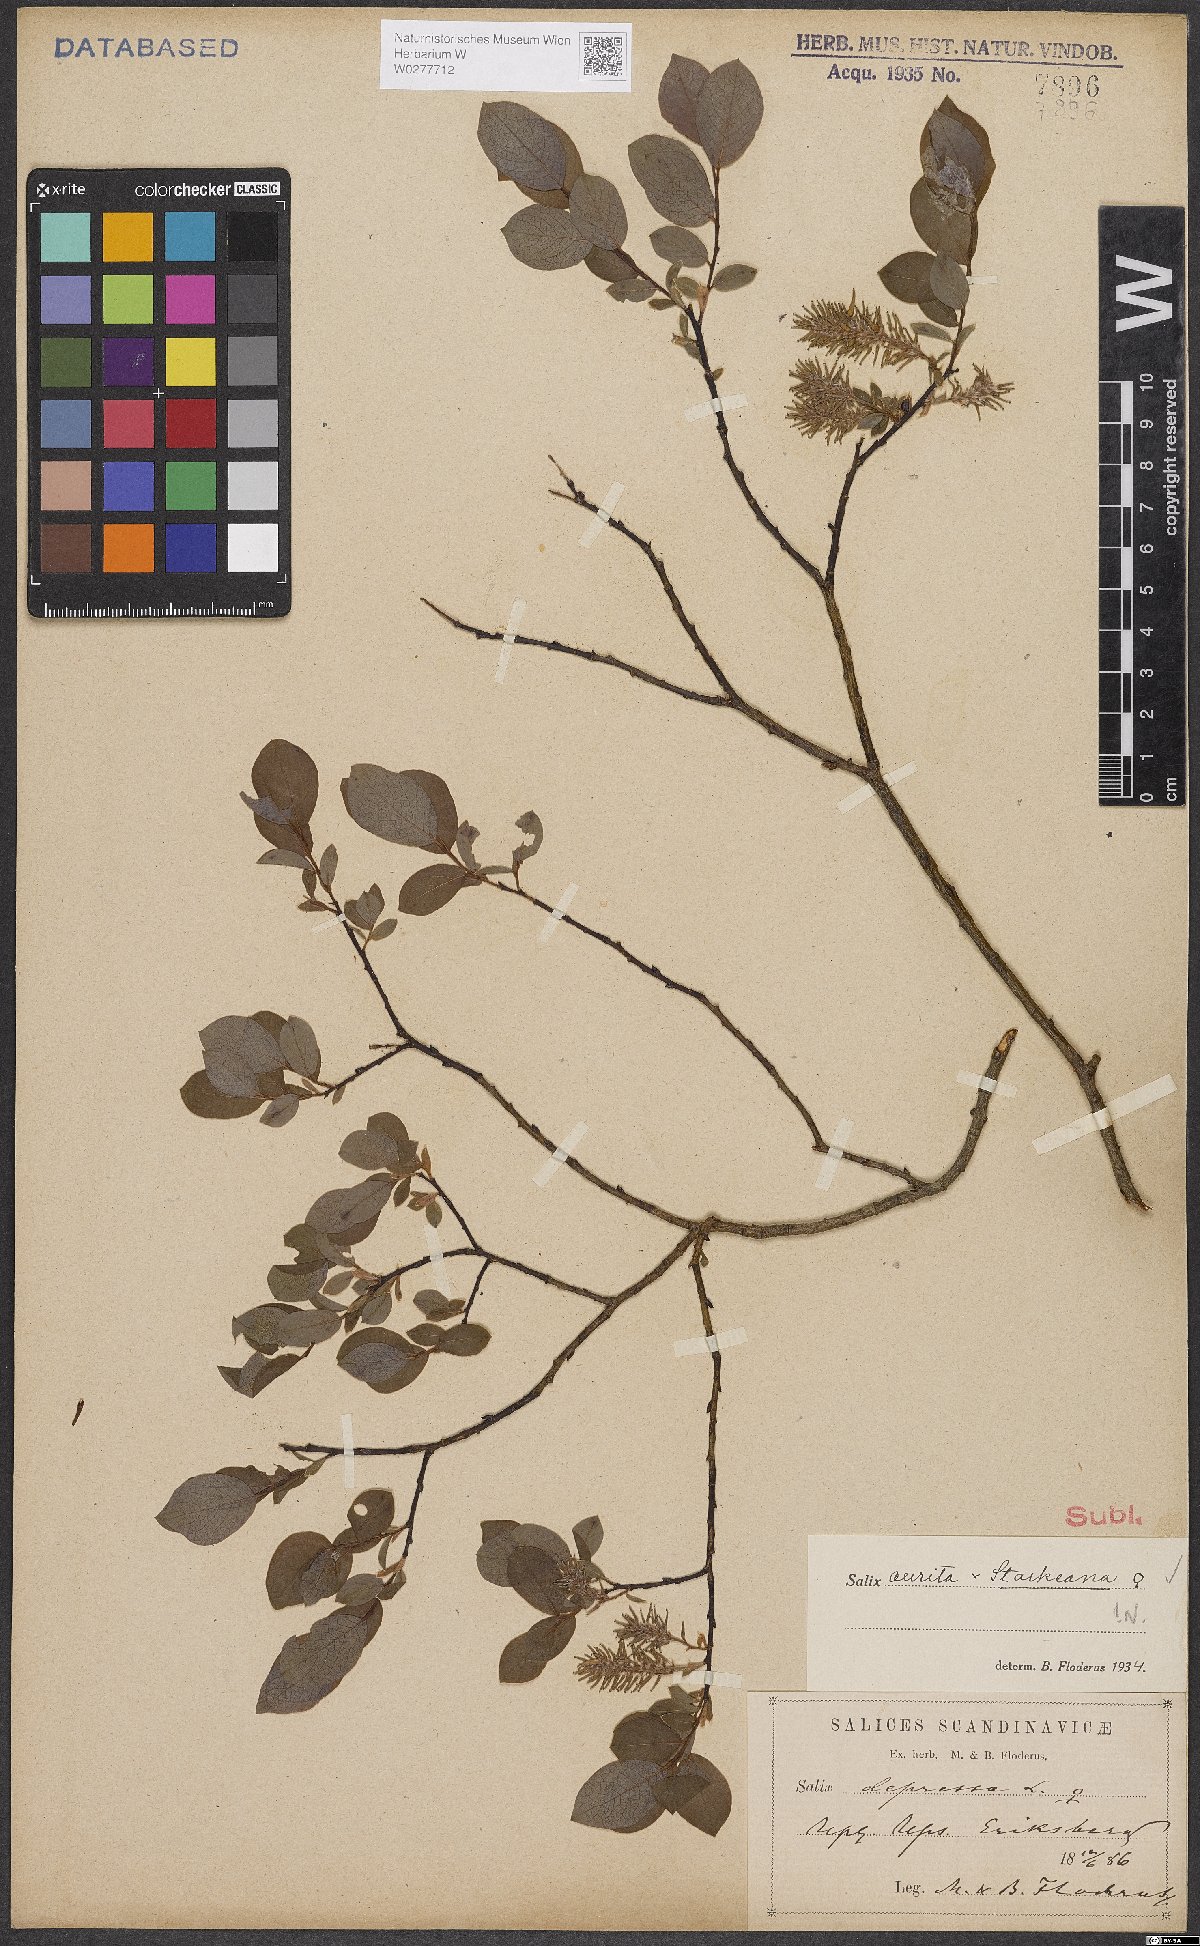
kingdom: Plantae
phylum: Tracheophyta
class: Magnoliopsida
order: Malpighiales
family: Salicaceae
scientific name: Salicaceae
